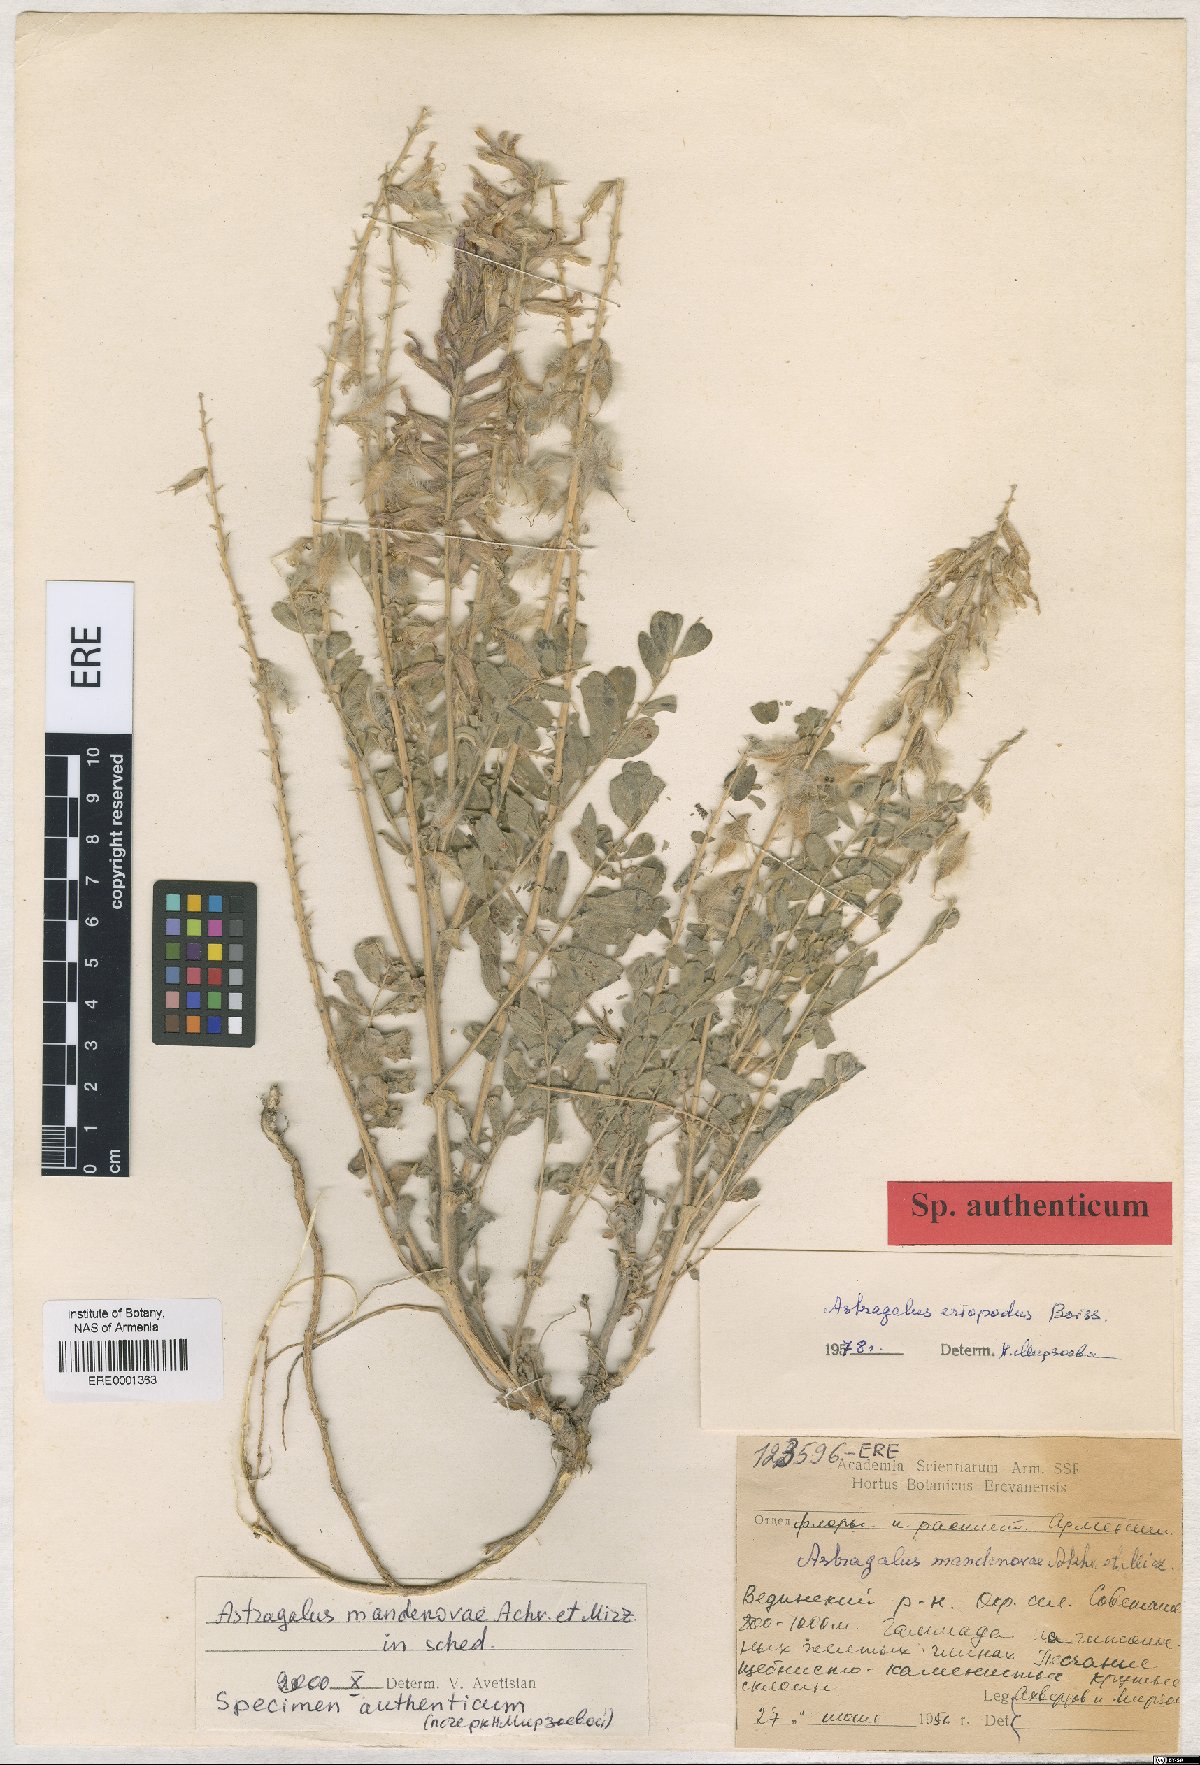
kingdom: Plantae
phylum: Tracheophyta
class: Magnoliopsida
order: Fabales
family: Fabaceae
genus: Astragalus
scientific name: Astragalus eriopodus
